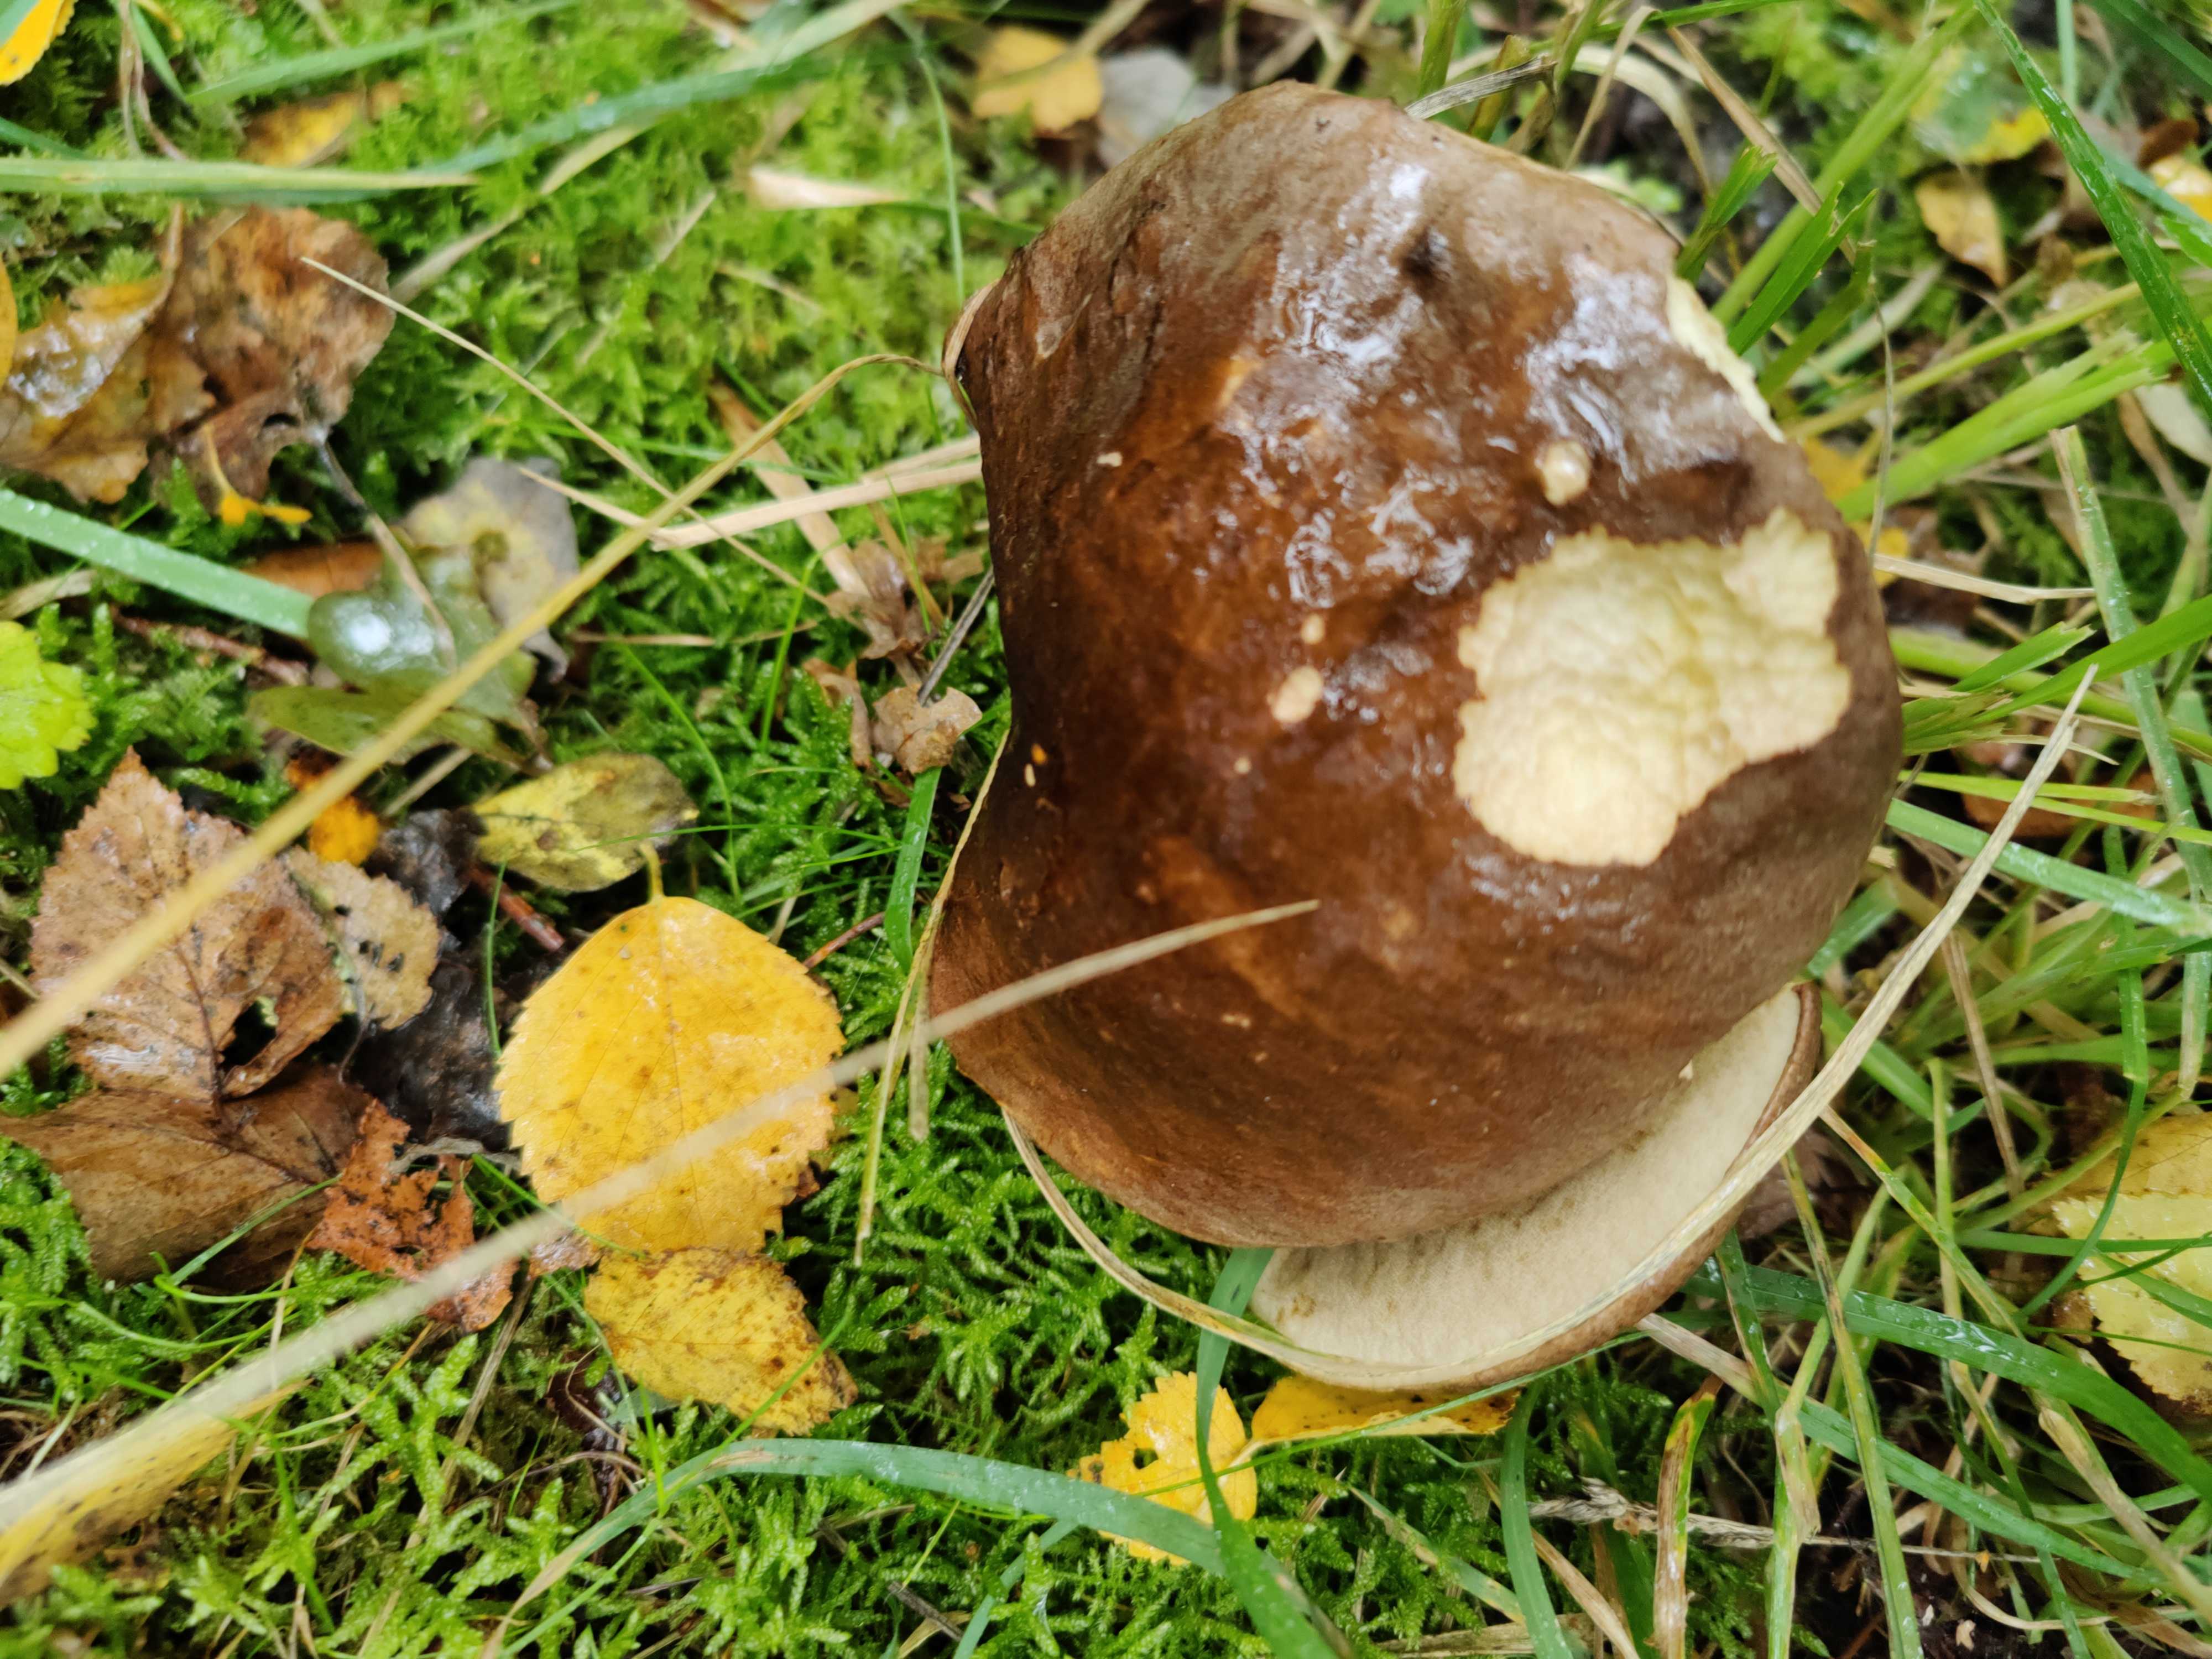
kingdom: Fungi
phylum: Basidiomycota
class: Agaricomycetes
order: Boletales
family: Boletaceae
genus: Leccinum
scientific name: Leccinum
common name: skælrørhat
